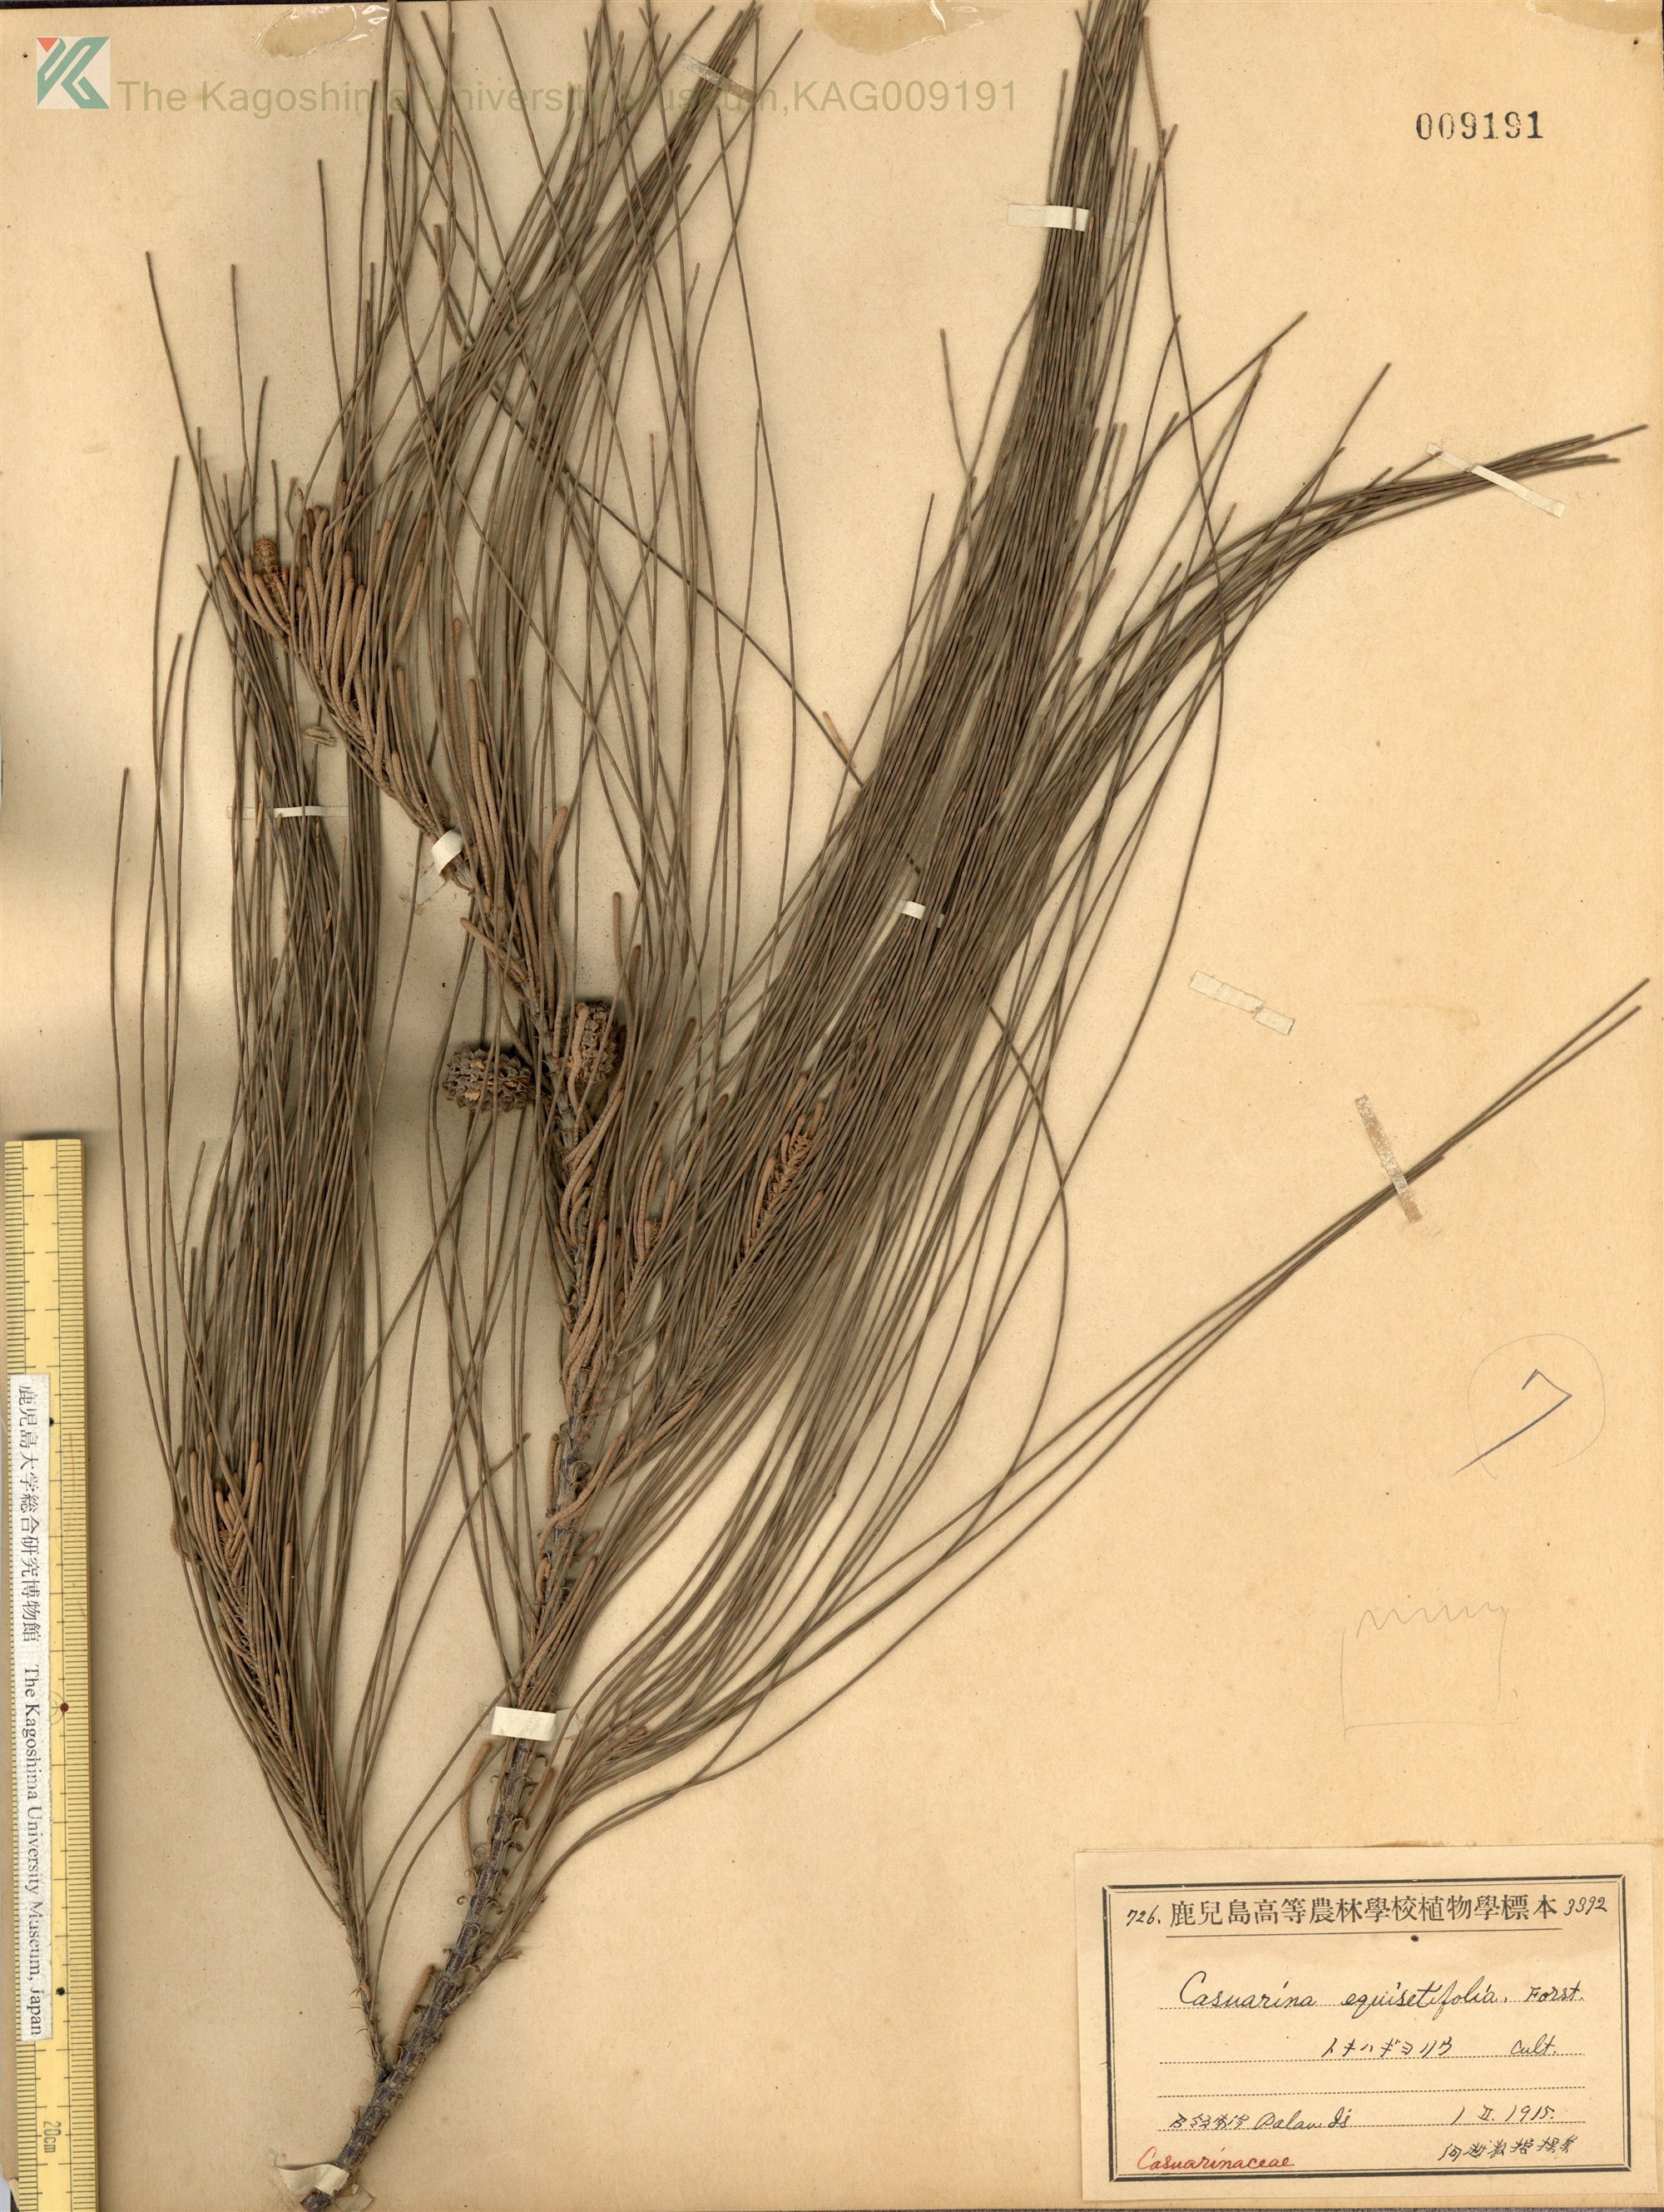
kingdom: Plantae
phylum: Tracheophyta
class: Magnoliopsida
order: Fagales
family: Casuarinaceae
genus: Casuarina
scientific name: Casuarina equisetifolia
